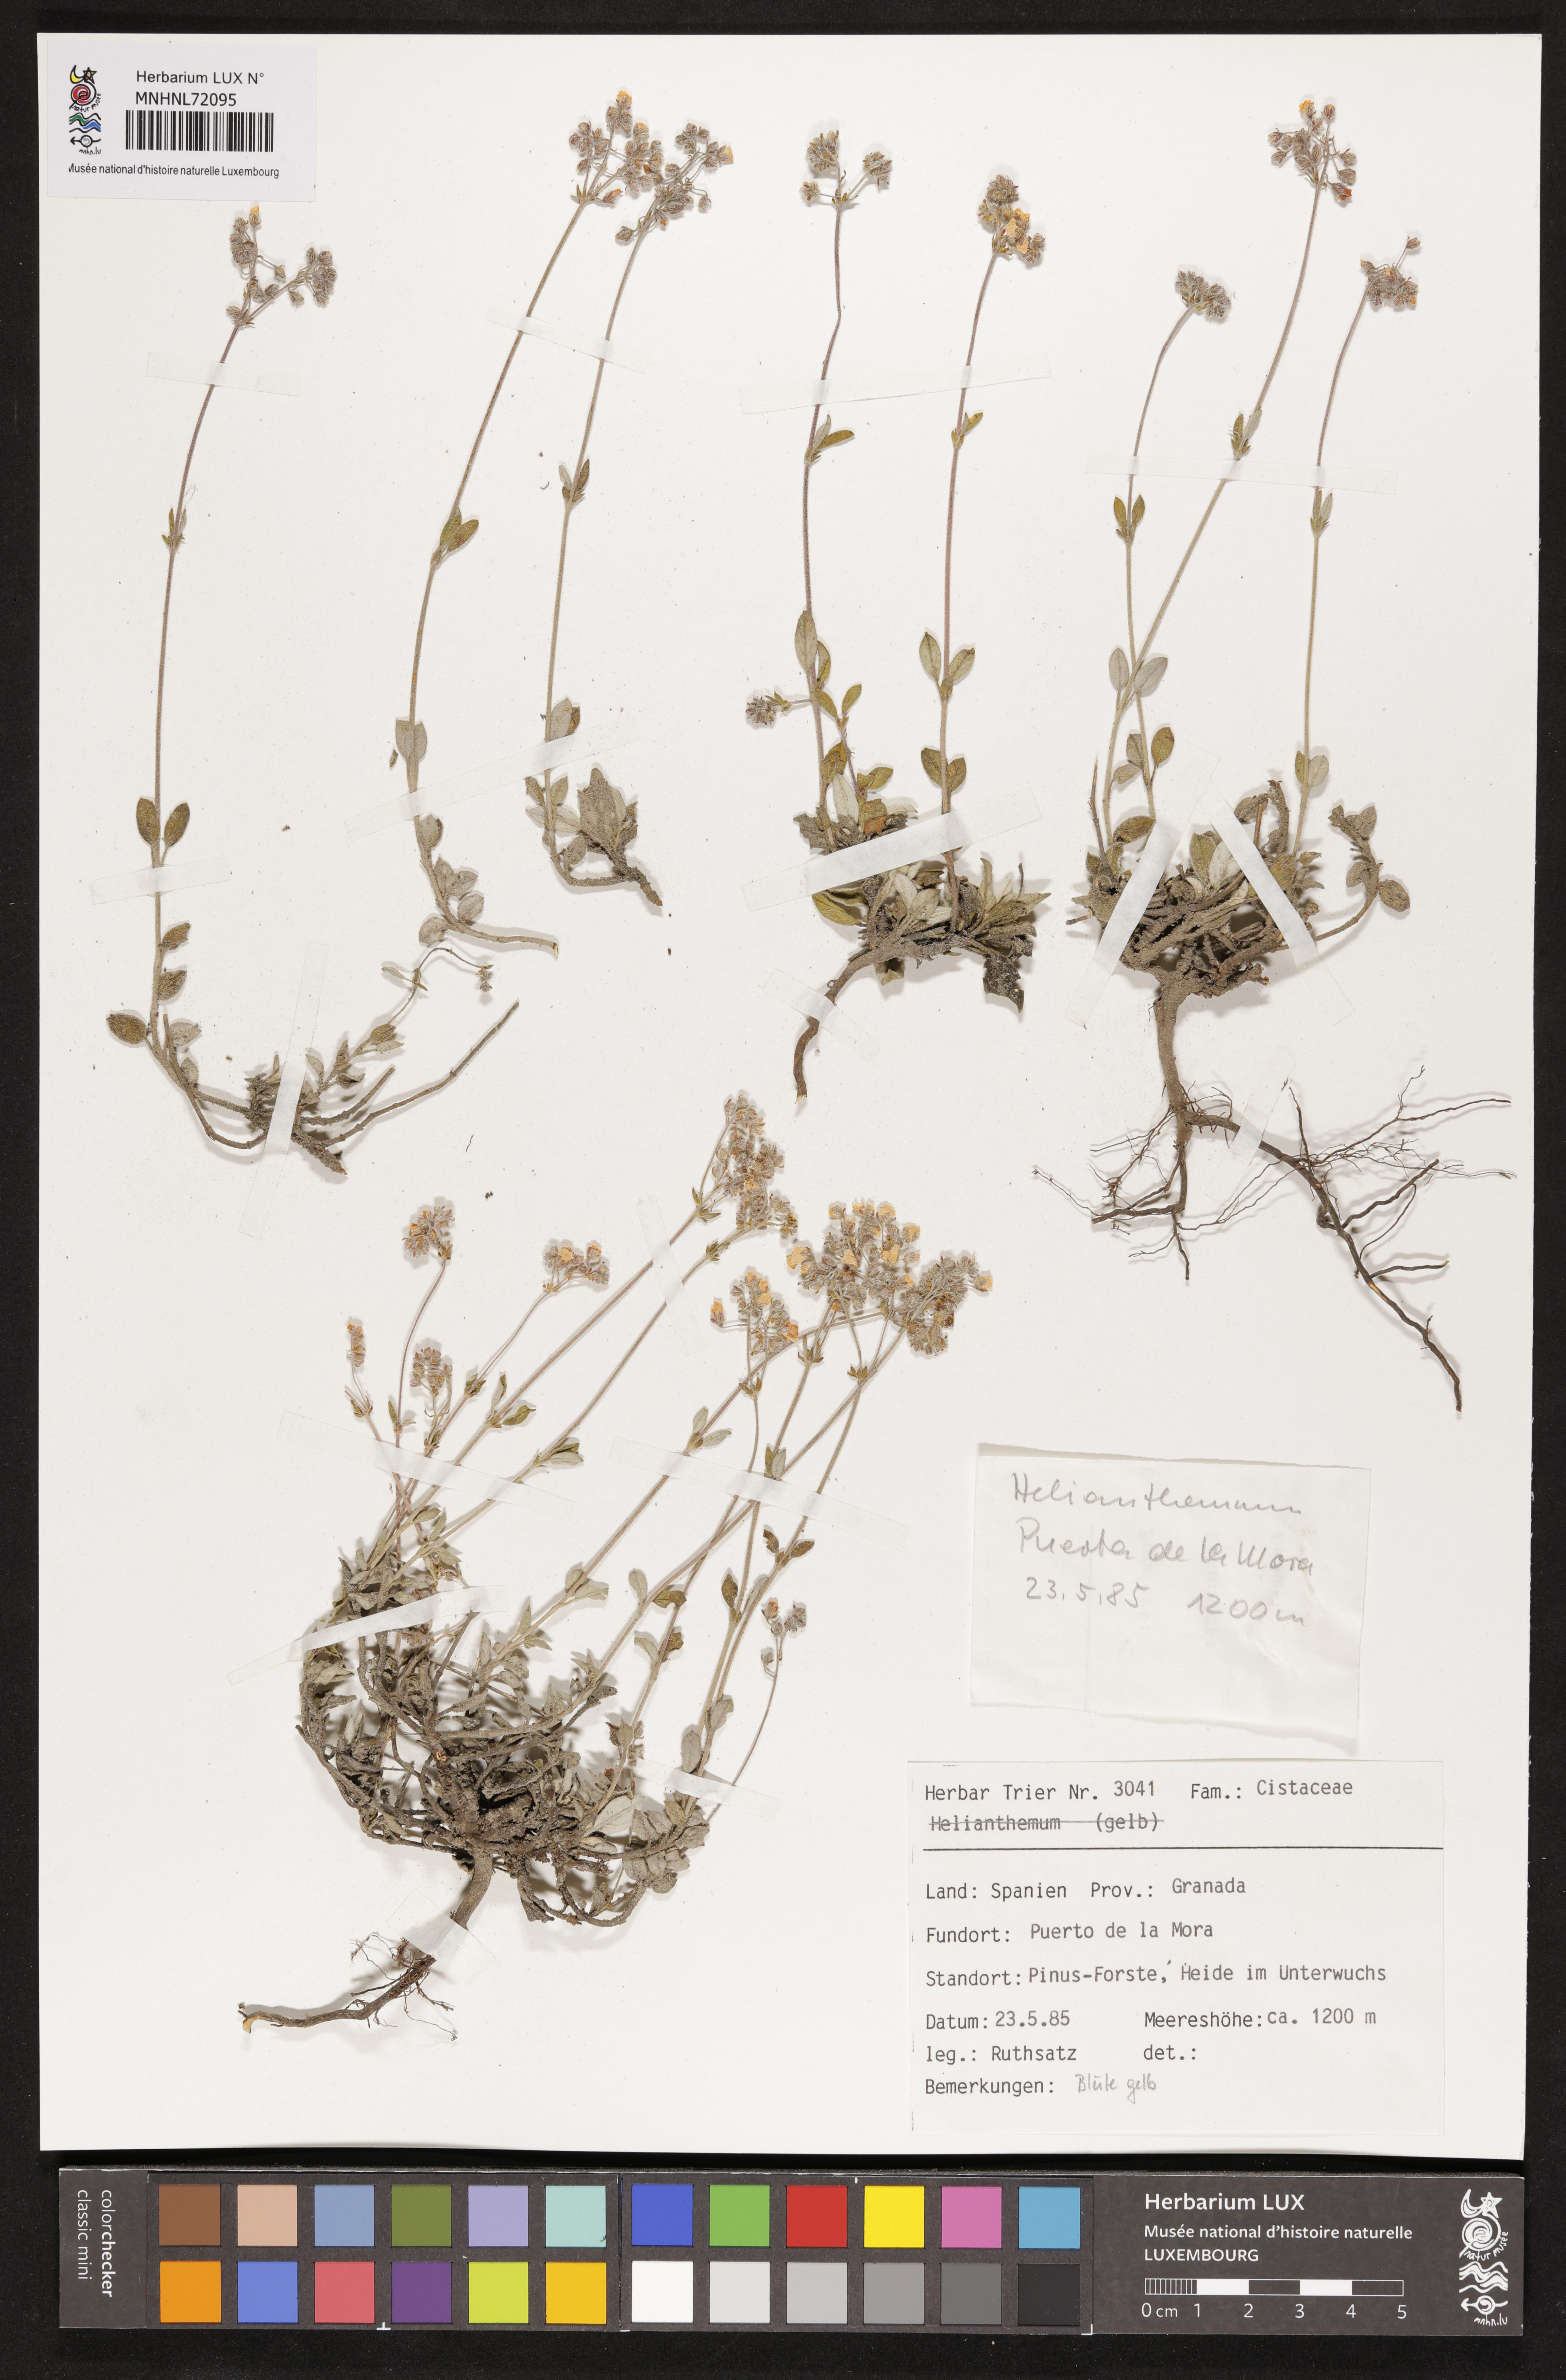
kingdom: Plantae
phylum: Tracheophyta
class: Magnoliopsida
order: Malvales
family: Cistaceae
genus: Helianthemum
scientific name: Helianthemum
